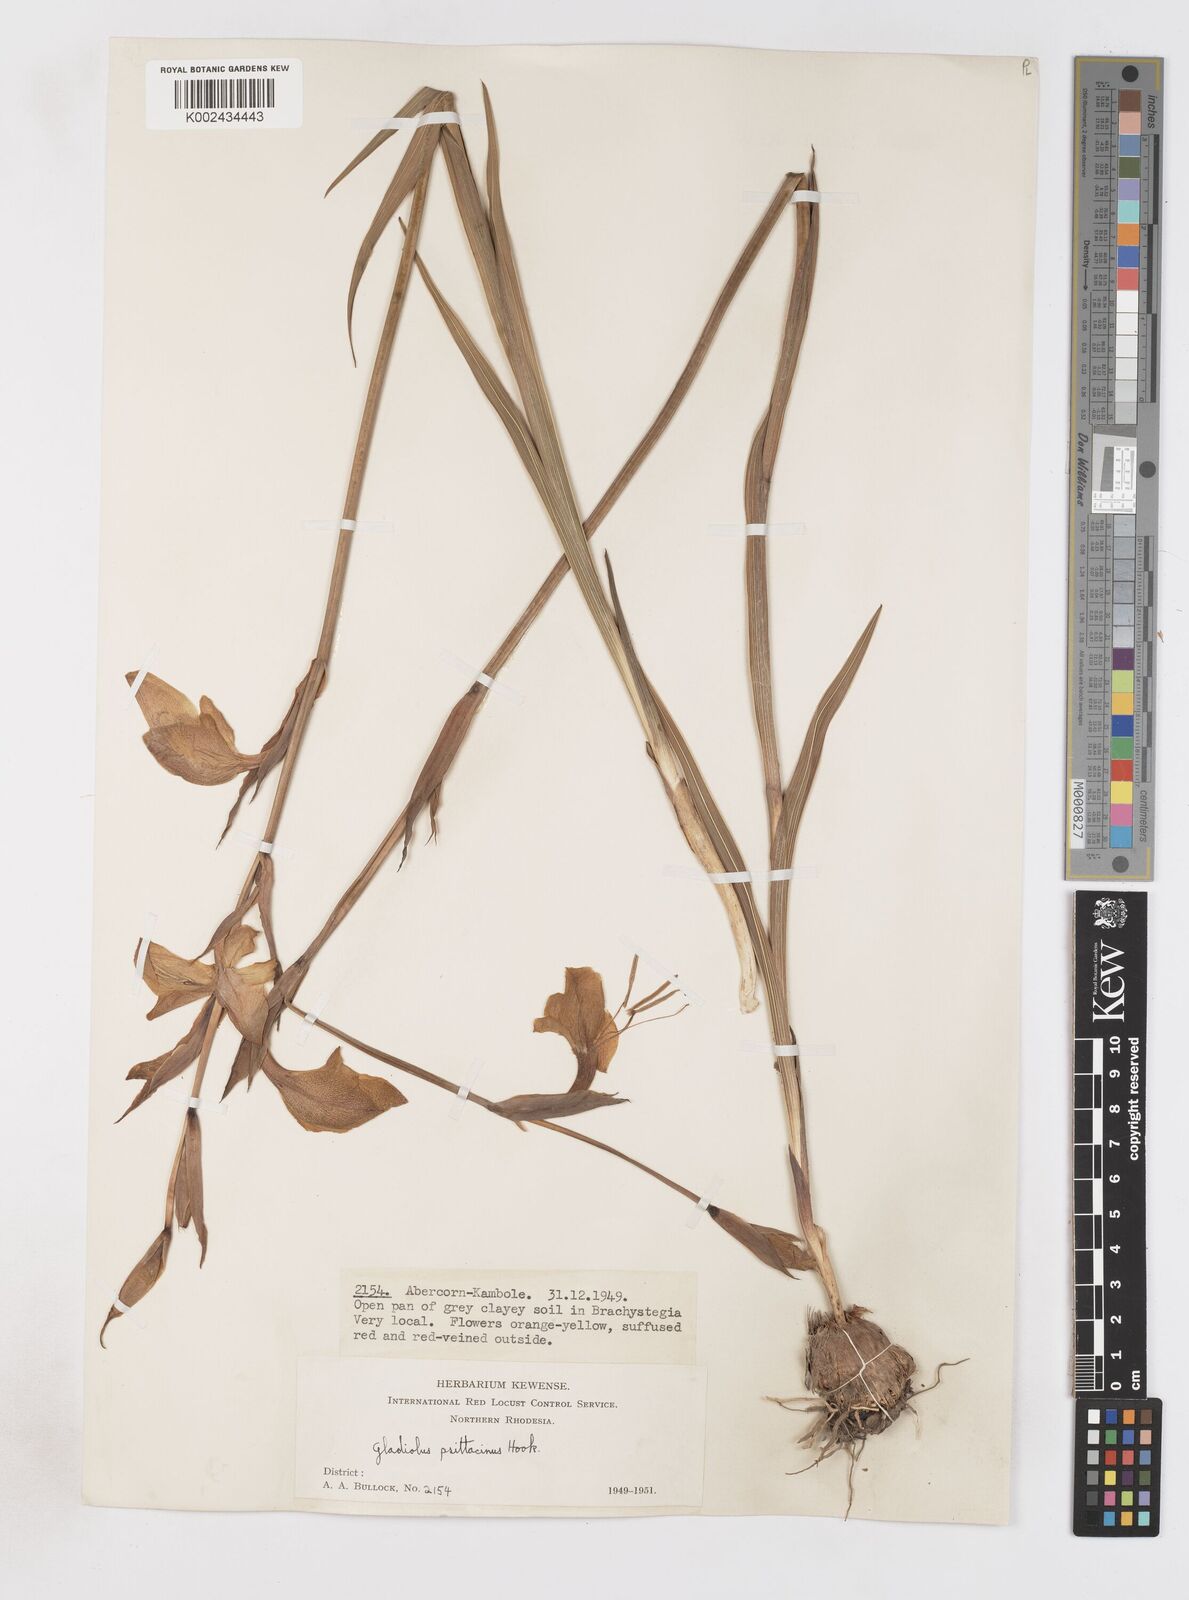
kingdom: Plantae
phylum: Tracheophyta
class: Liliopsida
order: Asparagales
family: Iridaceae
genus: Gladiolus
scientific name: Gladiolus dalenii
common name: Cornflag
